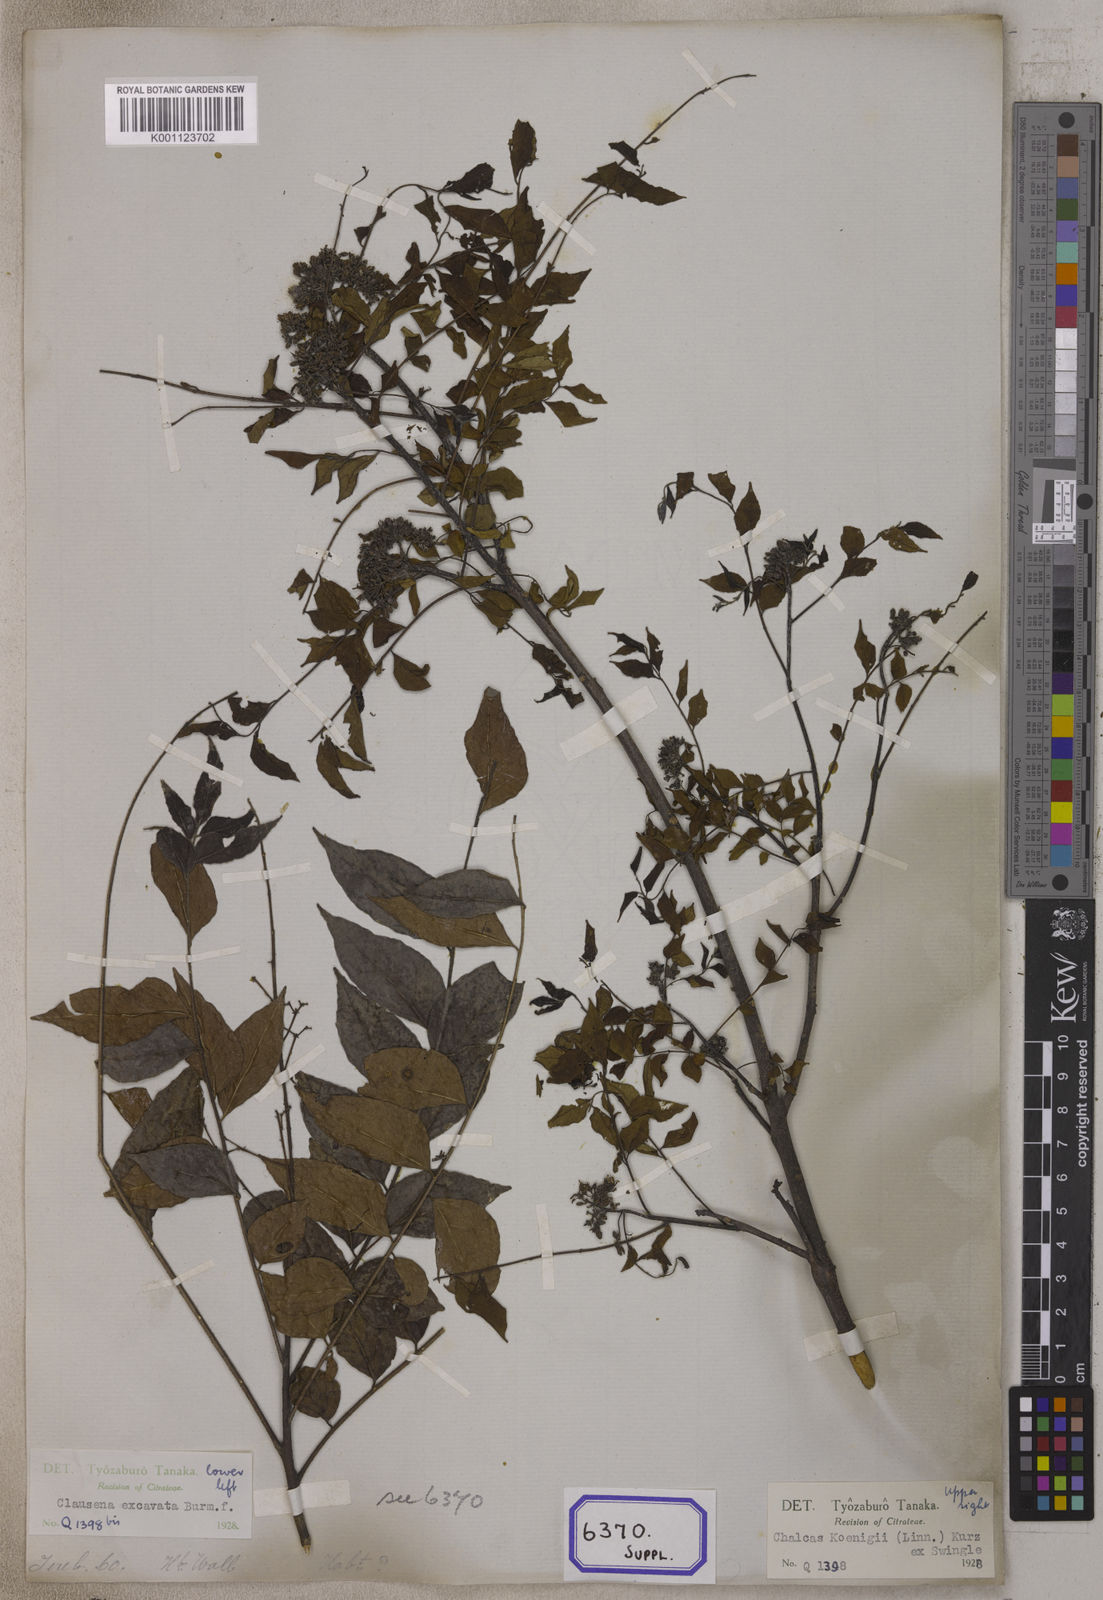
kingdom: Plantae
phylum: Tracheophyta
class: Magnoliopsida
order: Sapindales
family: Rutaceae
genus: Murraya
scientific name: Murraya koenigii
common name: Curry-plant
